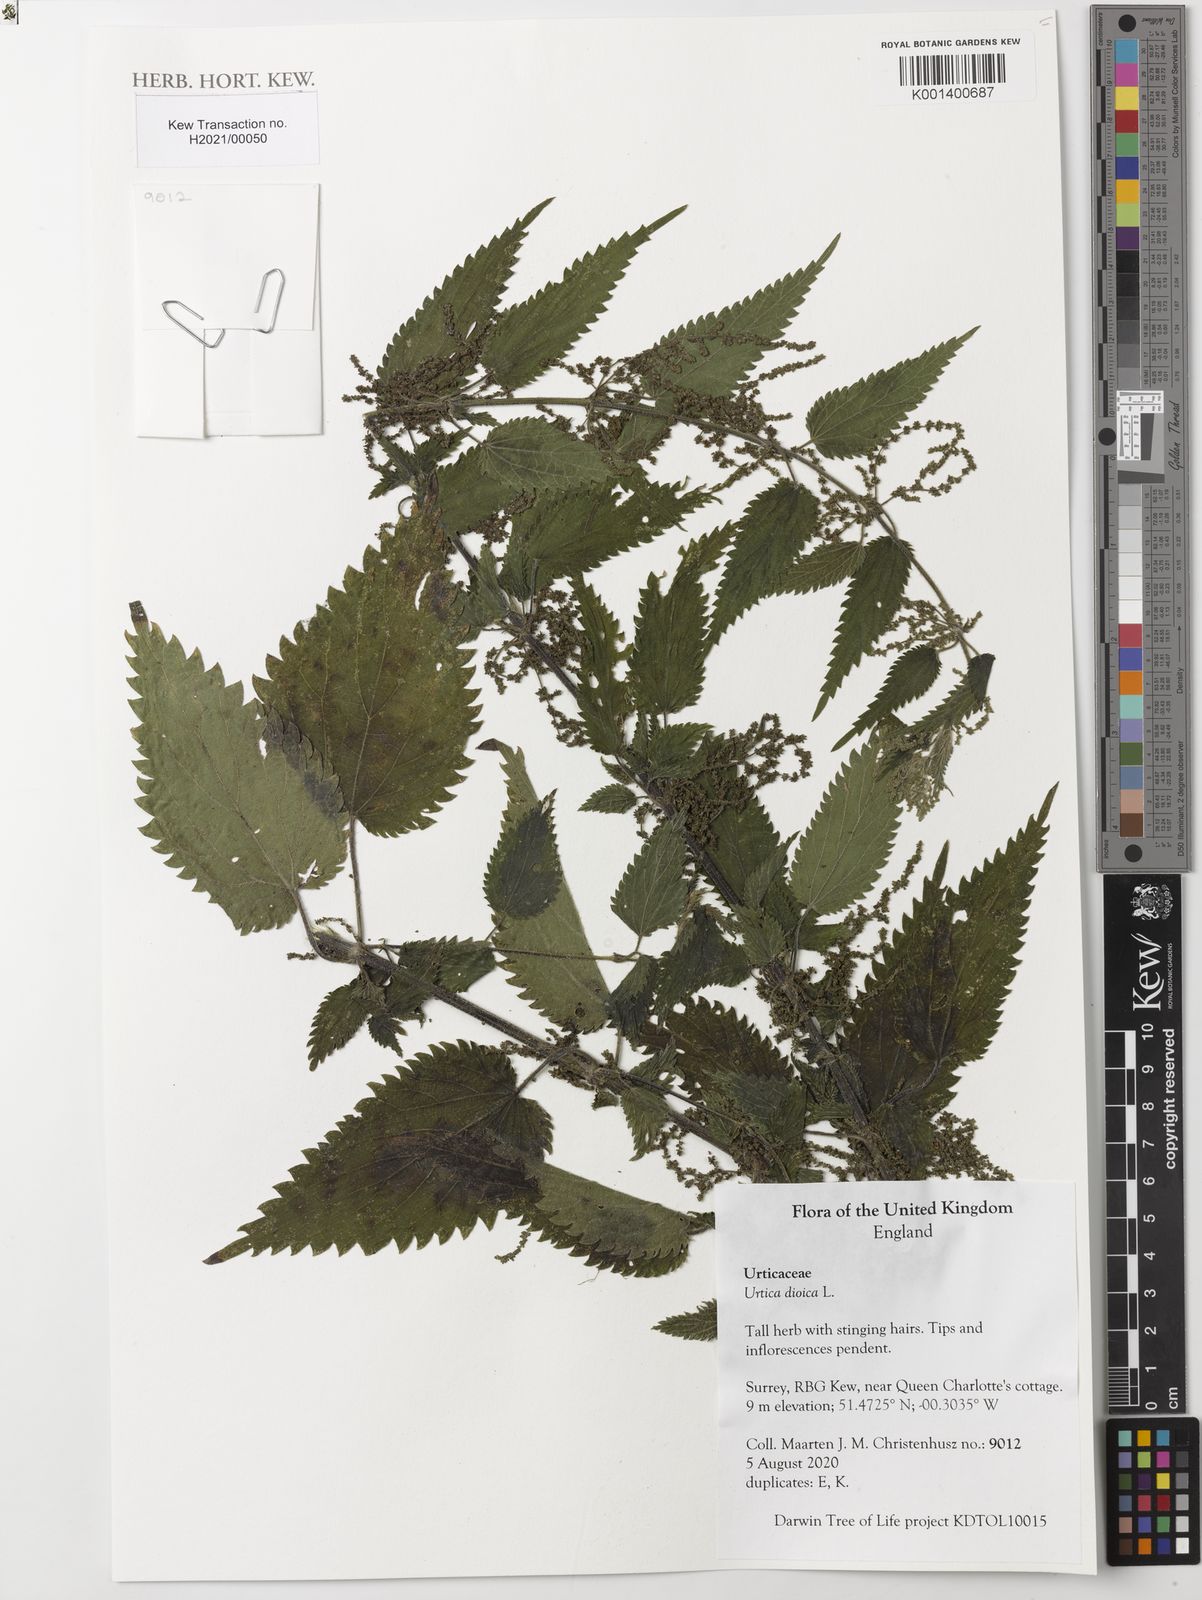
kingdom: Plantae
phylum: Tracheophyta
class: Magnoliopsida
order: Rosales
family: Urticaceae
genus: Urtica
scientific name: Urtica dioica
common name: Common nettle
